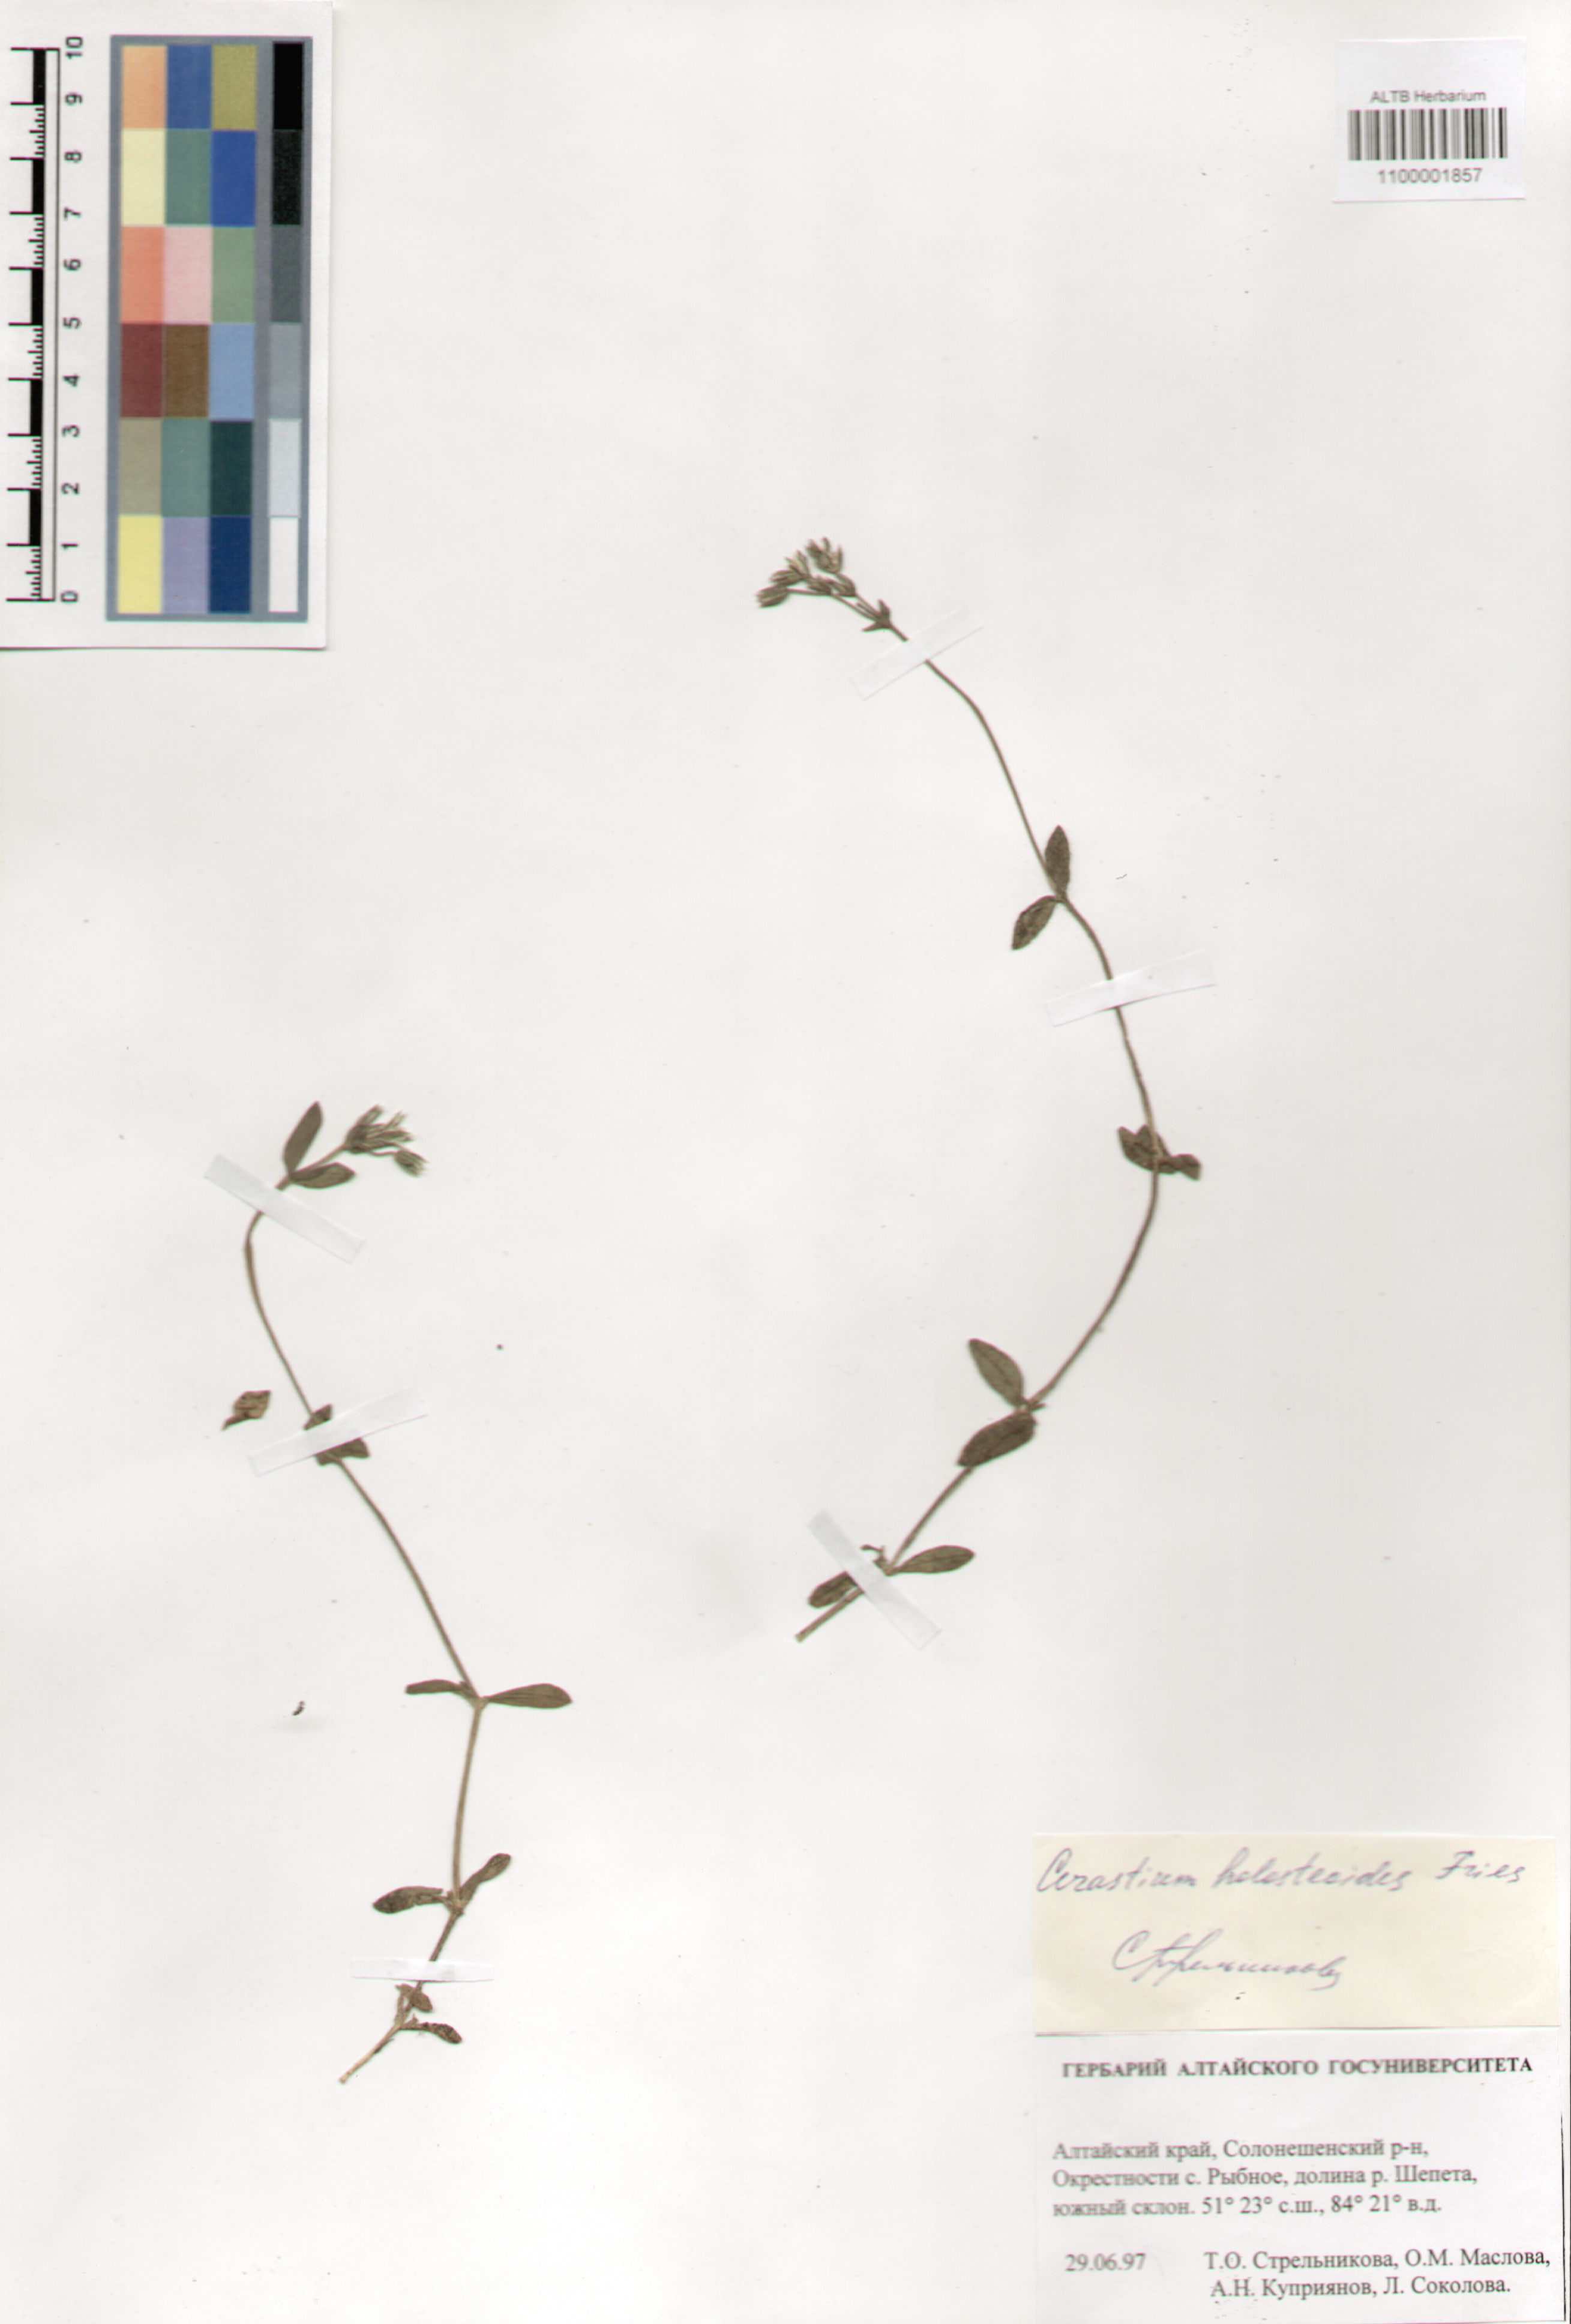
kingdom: Plantae
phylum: Tracheophyta
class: Magnoliopsida
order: Caryophyllales
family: Caryophyllaceae
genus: Cerastium
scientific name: Cerastium holosteoides
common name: Big chickweed
